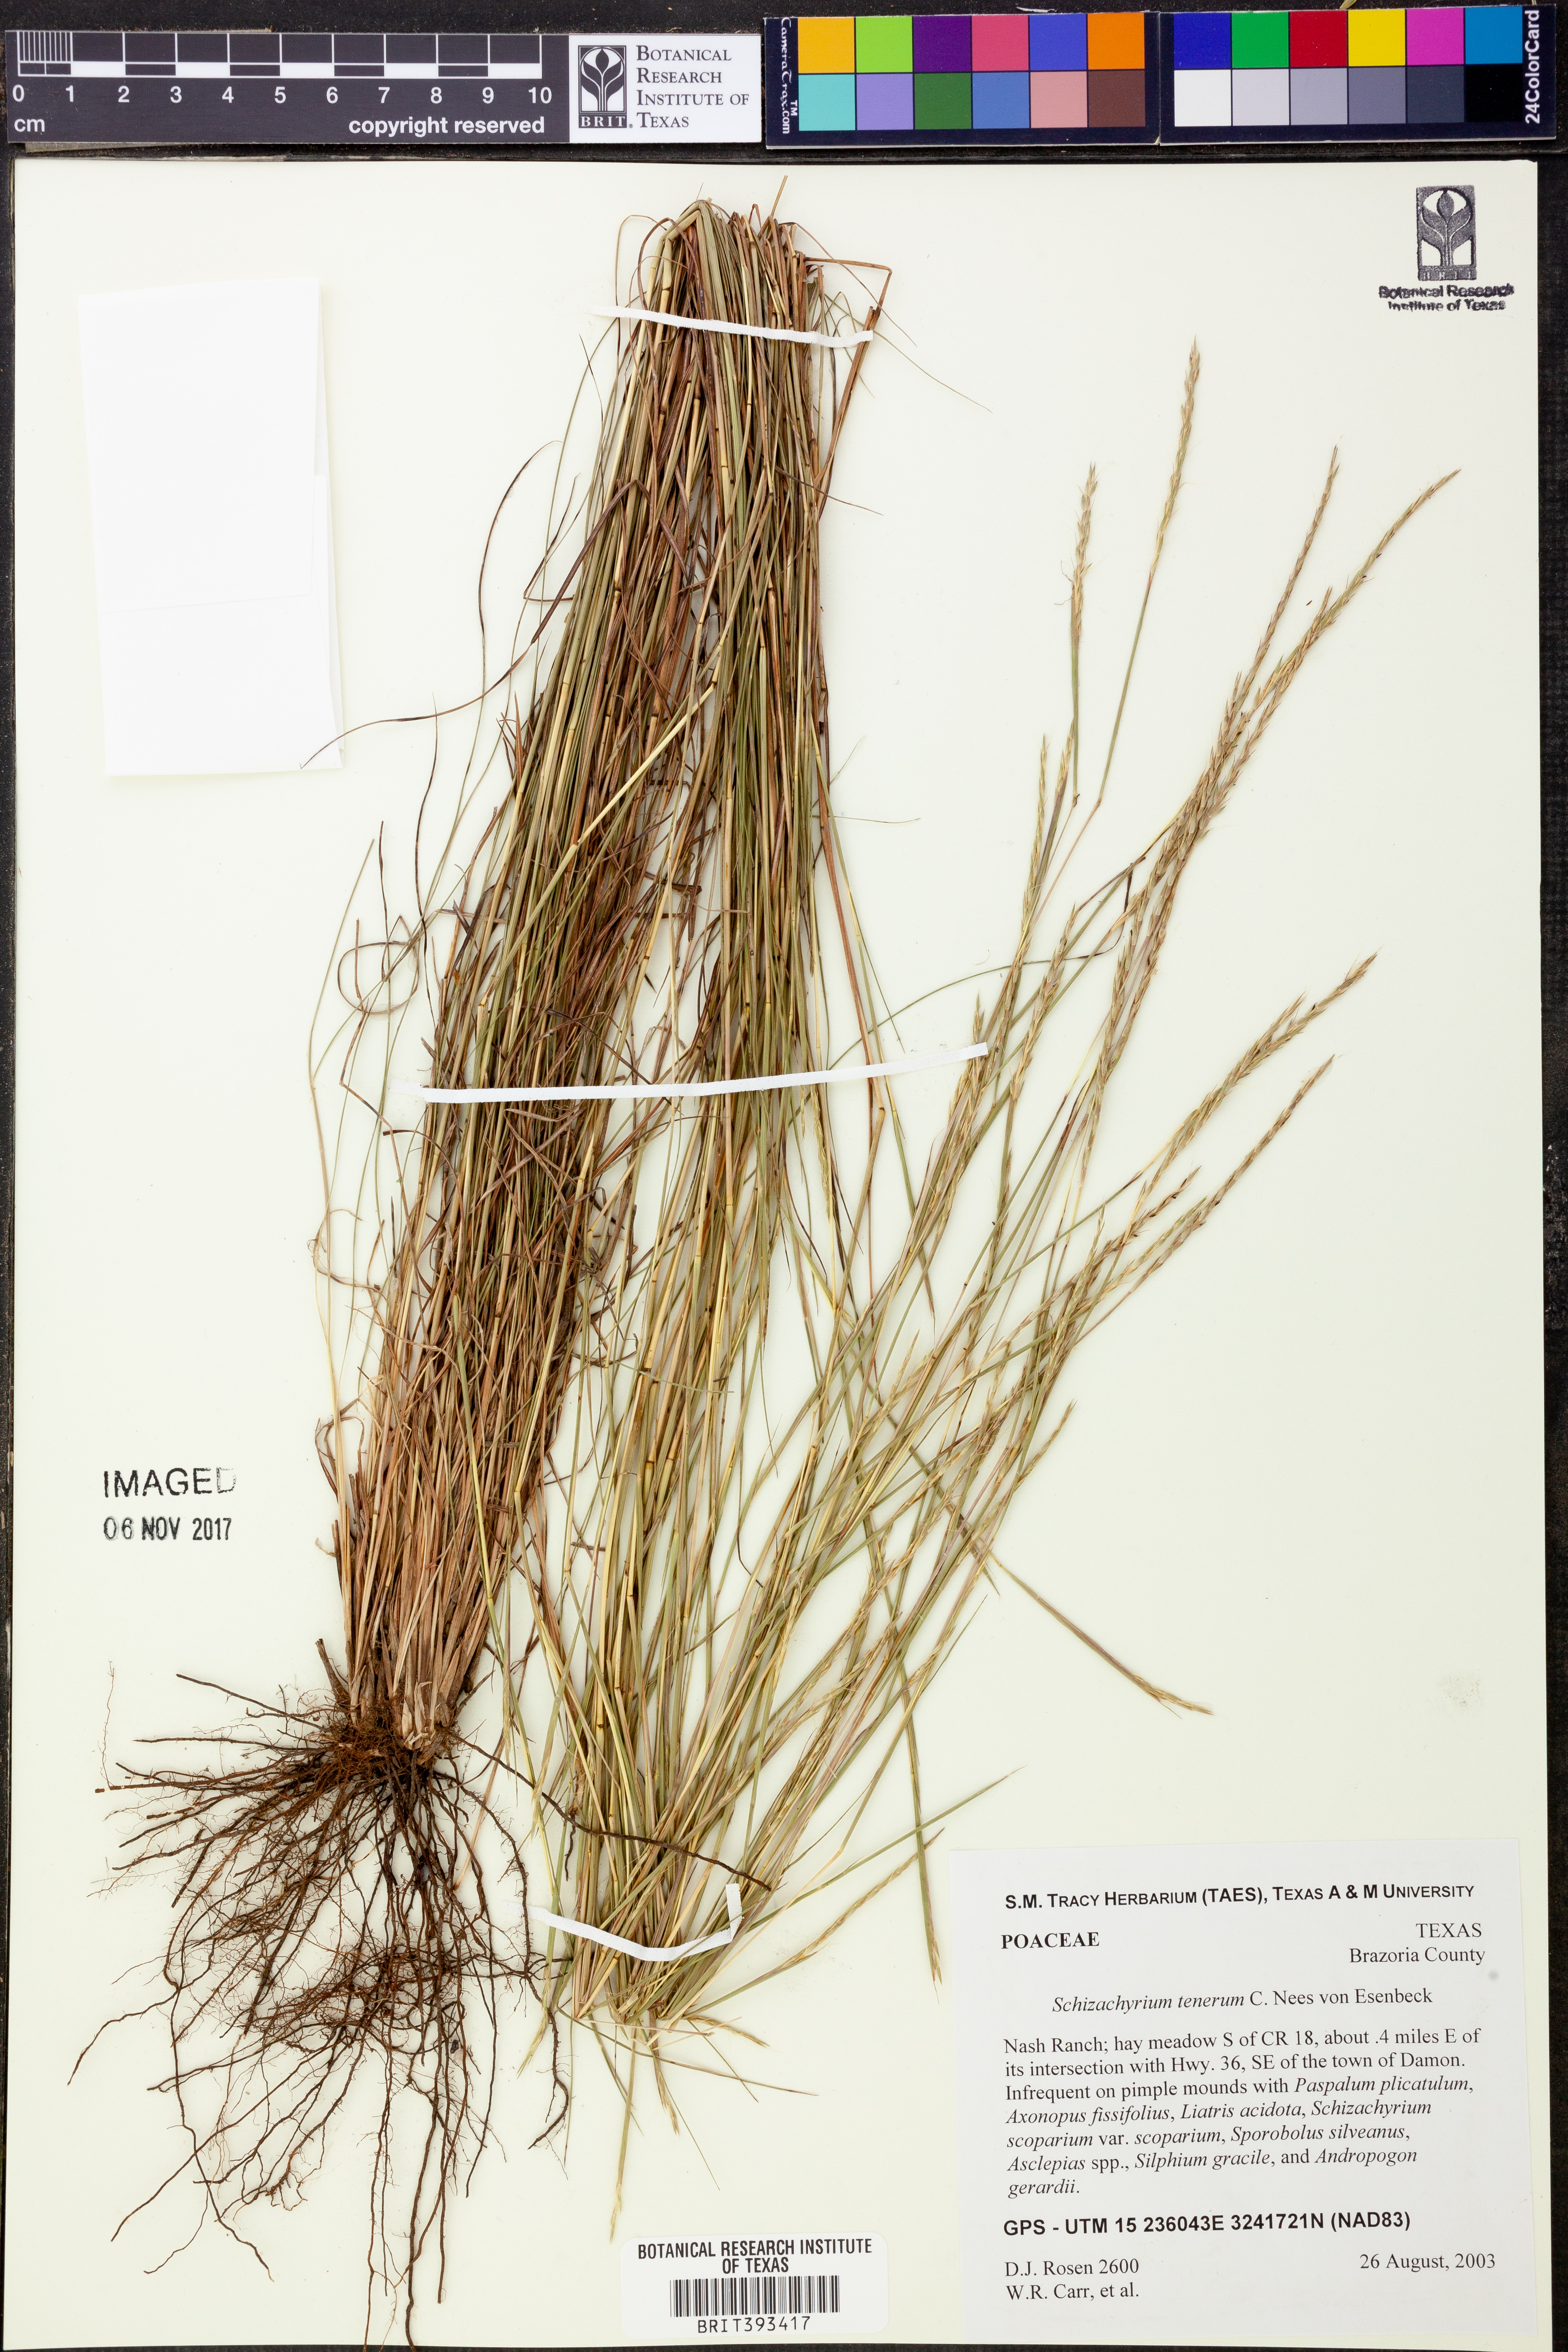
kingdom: Plantae
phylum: Tracheophyta
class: Liliopsida
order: Poales
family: Poaceae
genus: Andropogon
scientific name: Andropogon tener
